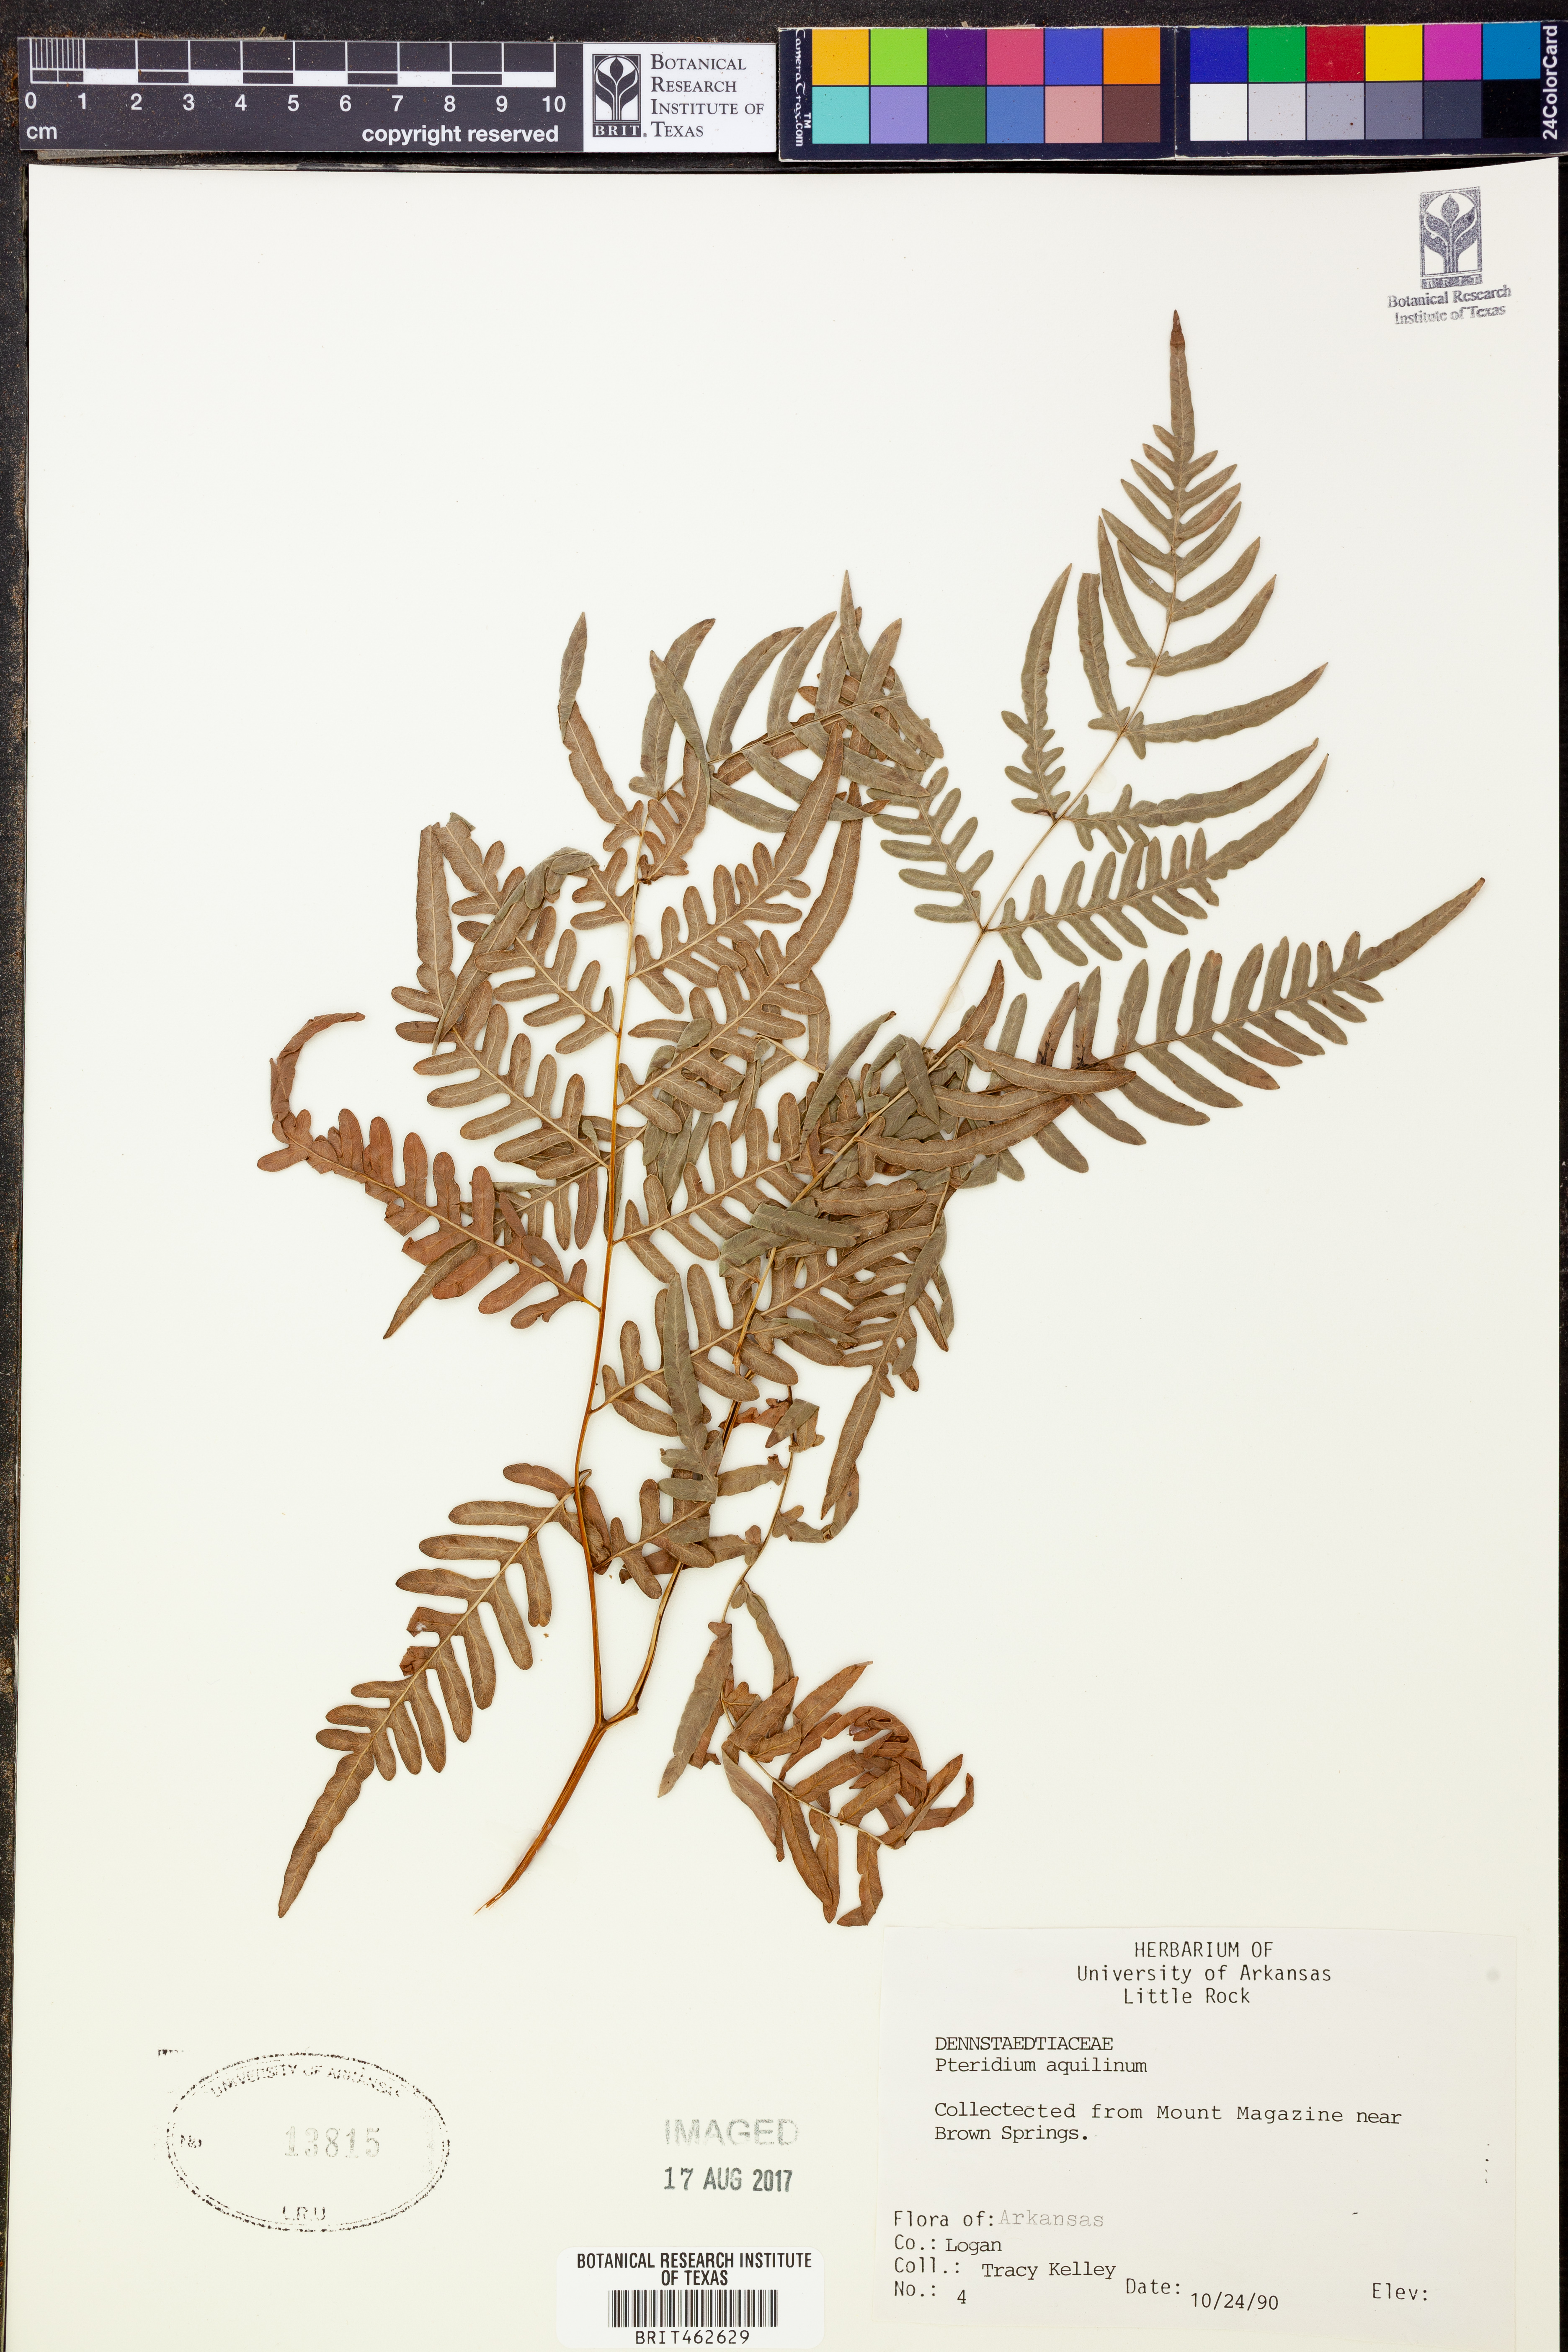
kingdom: Plantae
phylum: Tracheophyta
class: Polypodiopsida
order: Polypodiales
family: Dennstaedtiaceae
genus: Pteridium
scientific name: Pteridium aquilinum
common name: Bracken
